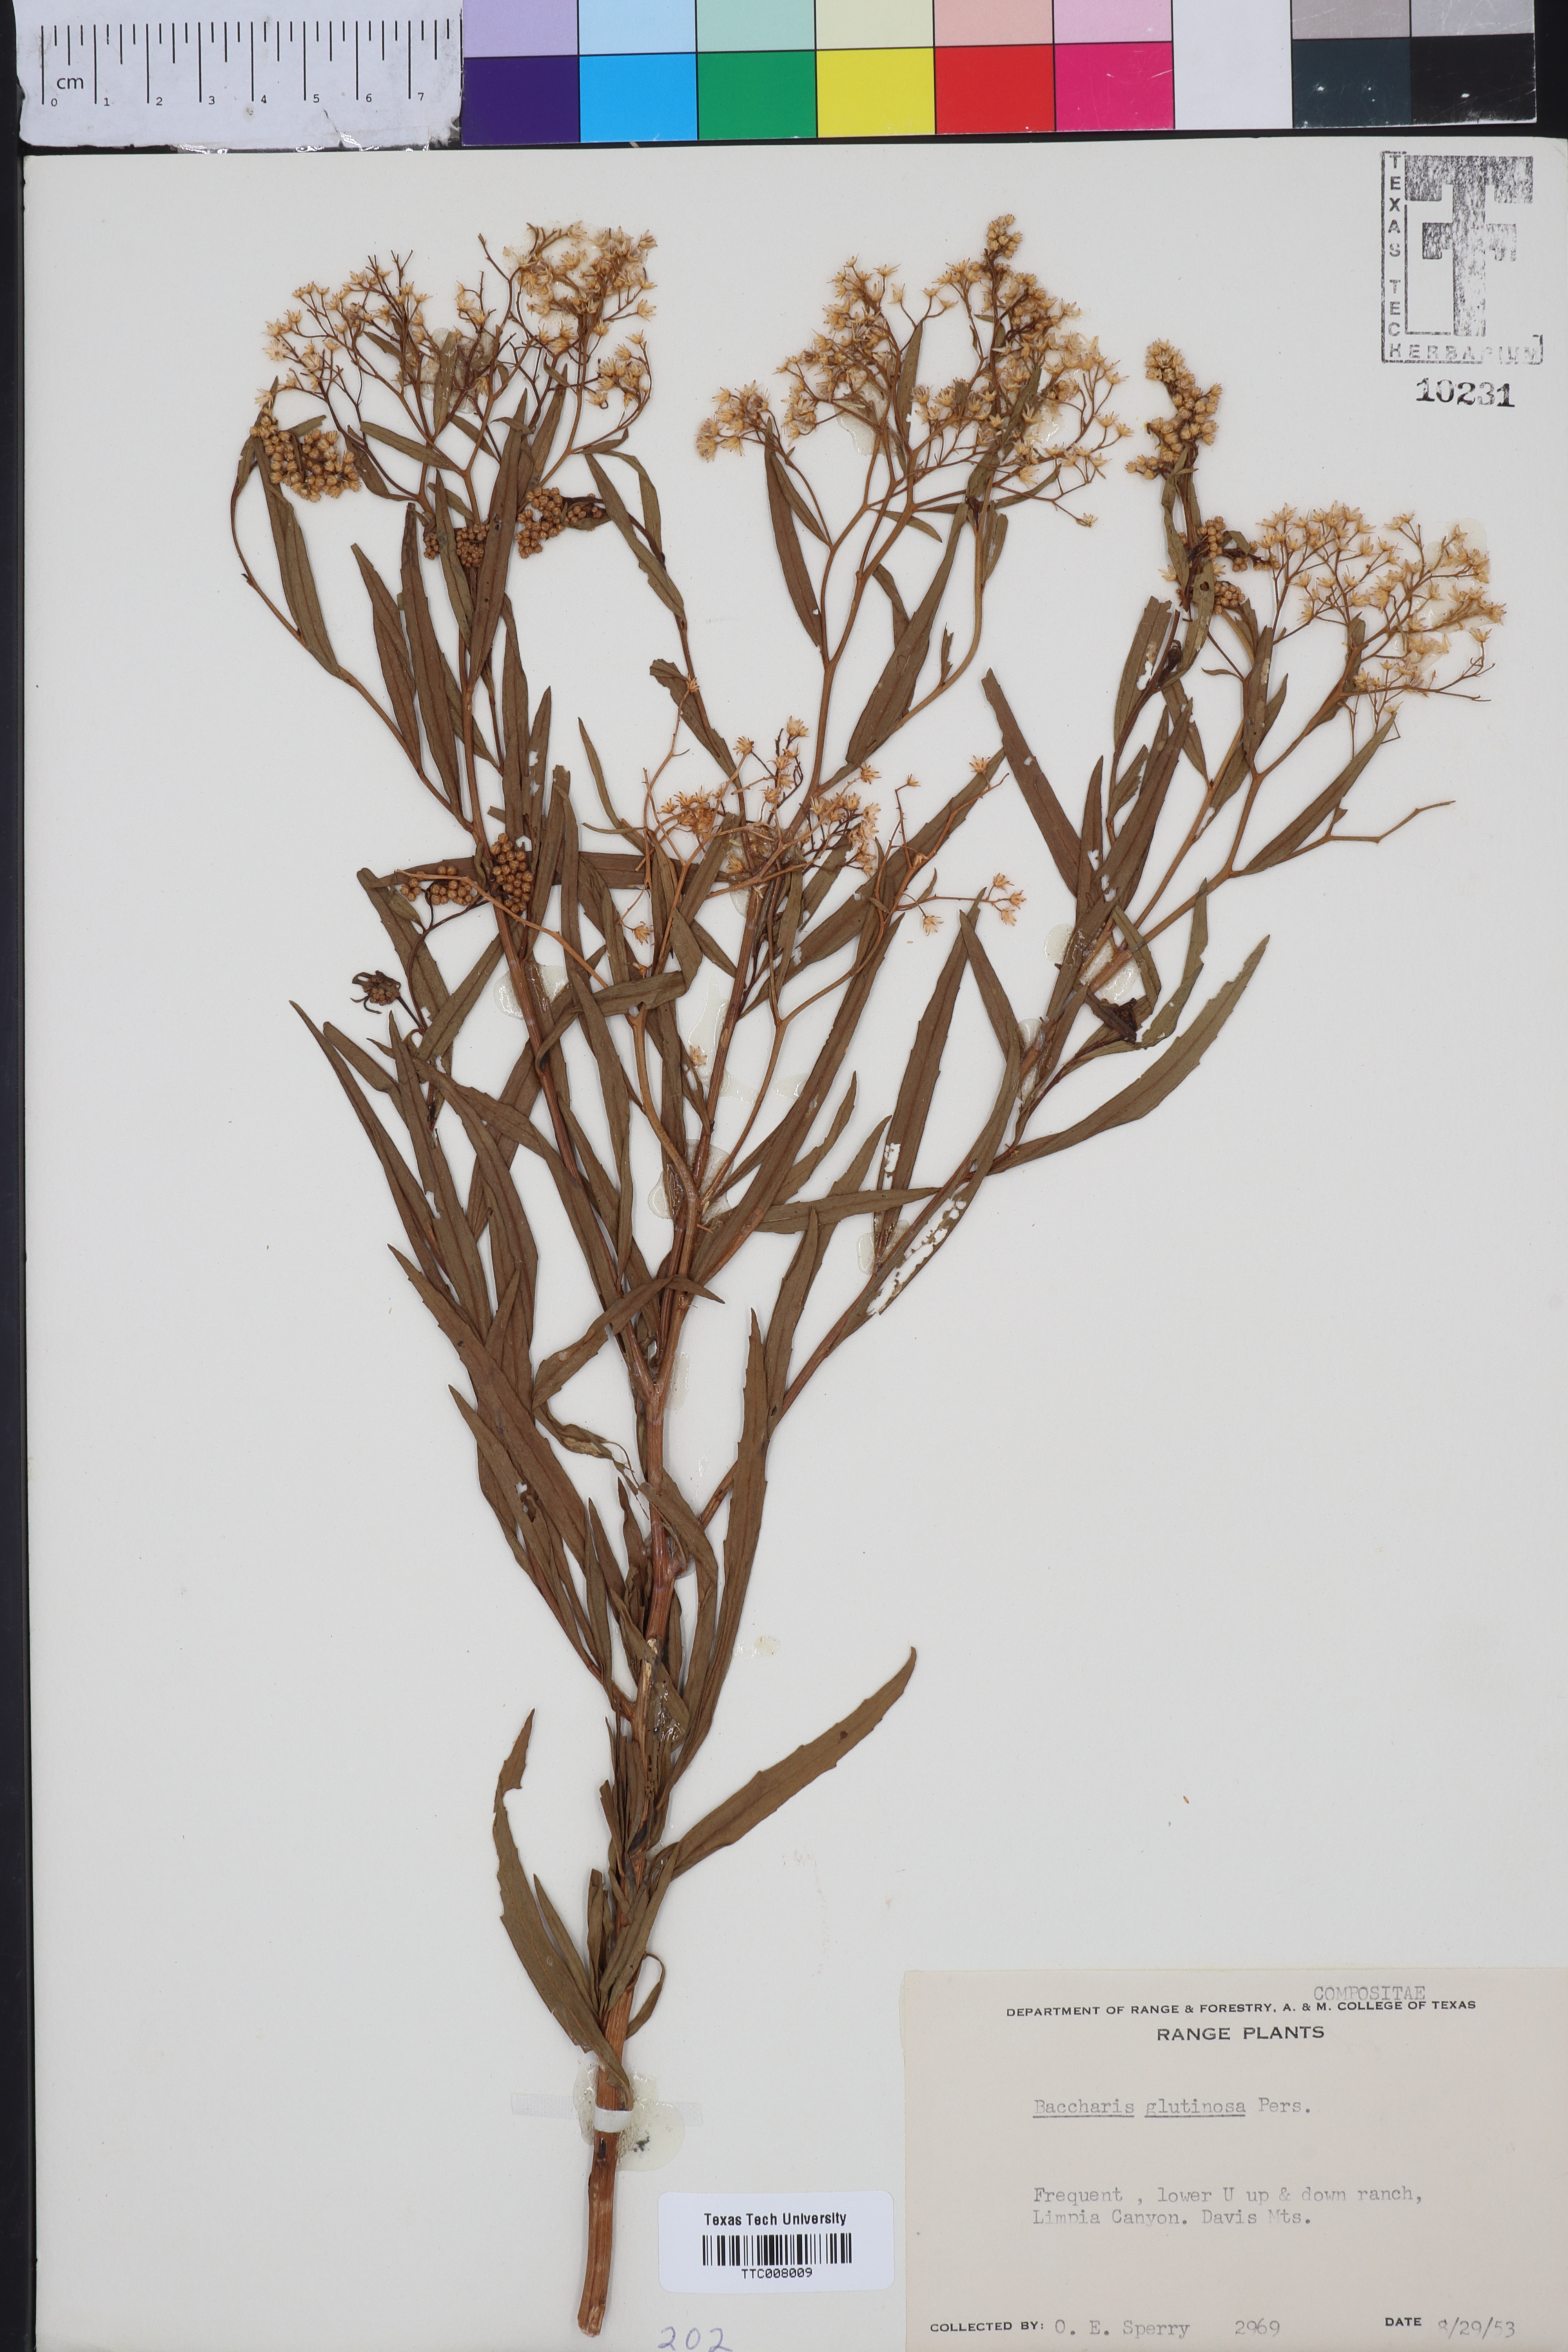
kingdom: Plantae
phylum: Tracheophyta
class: Magnoliopsida
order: Asterales
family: Asteraceae
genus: Baccharis
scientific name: Baccharis glutinosa
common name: Saltmarsh baccharis
